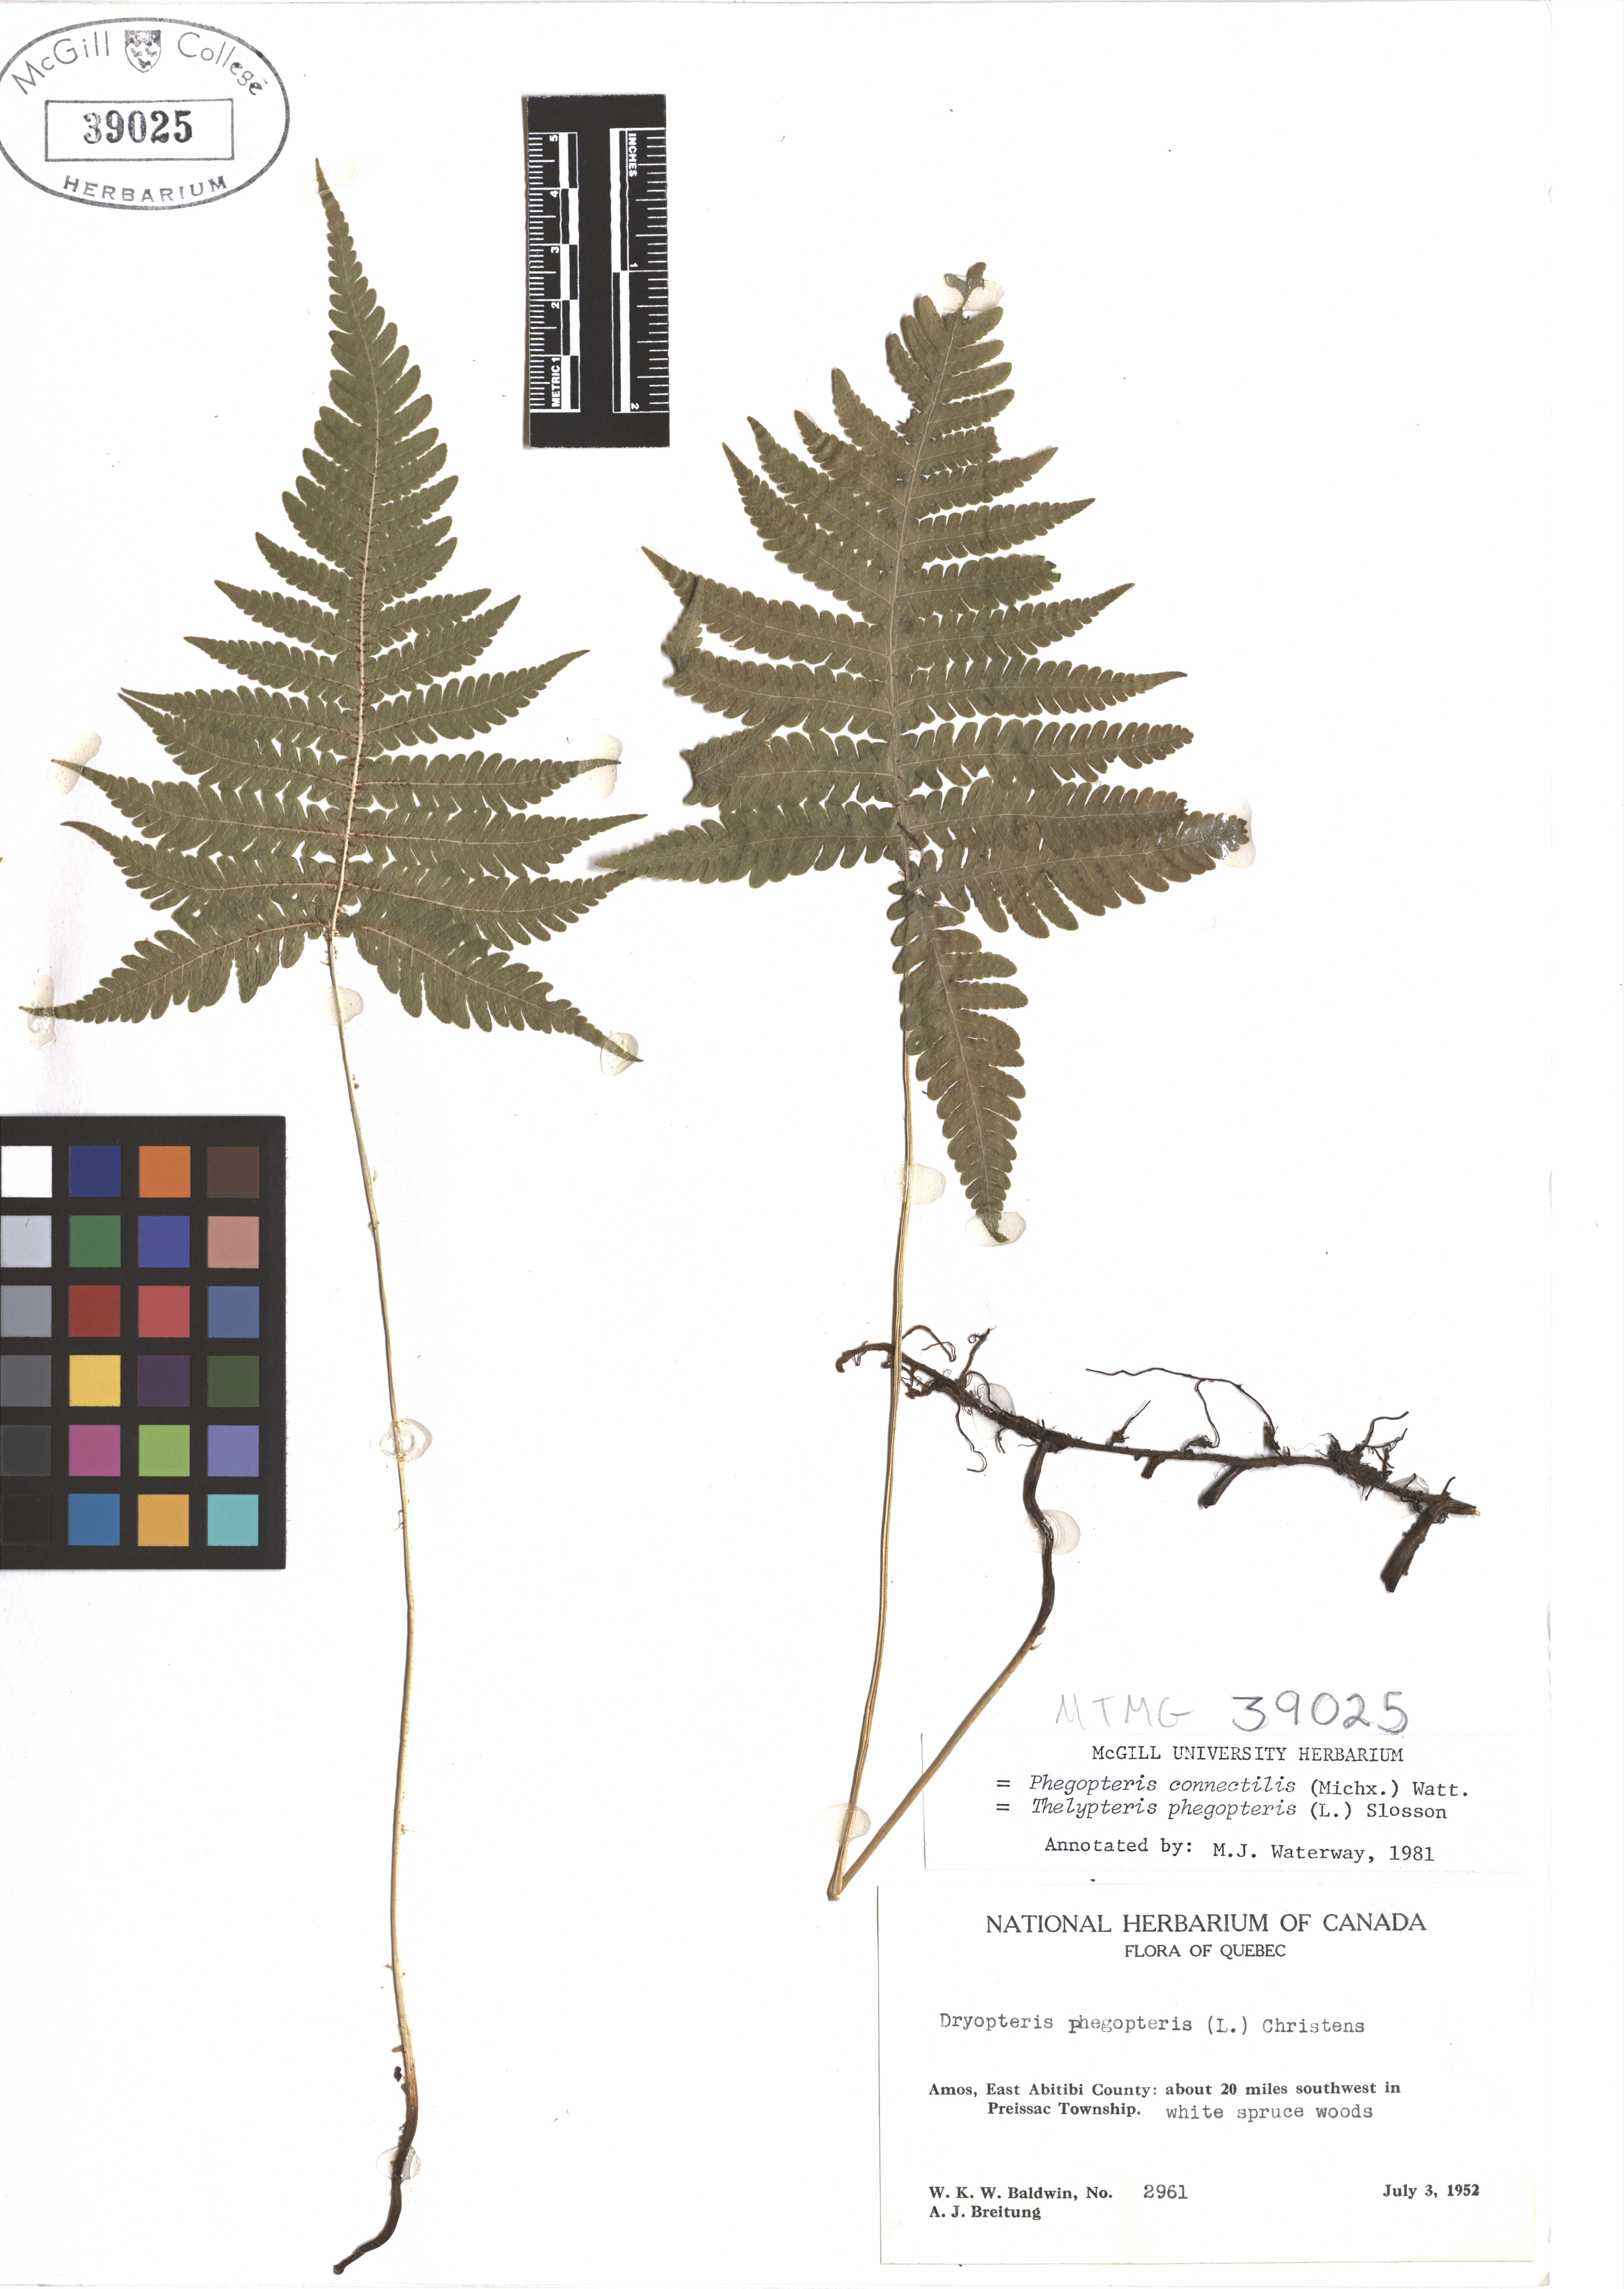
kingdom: Plantae
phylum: Tracheophyta
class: Polypodiopsida
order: Polypodiales
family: Thelypteridaceae
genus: Phegopteris
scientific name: Phegopteris connectilis
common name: Beech fern
